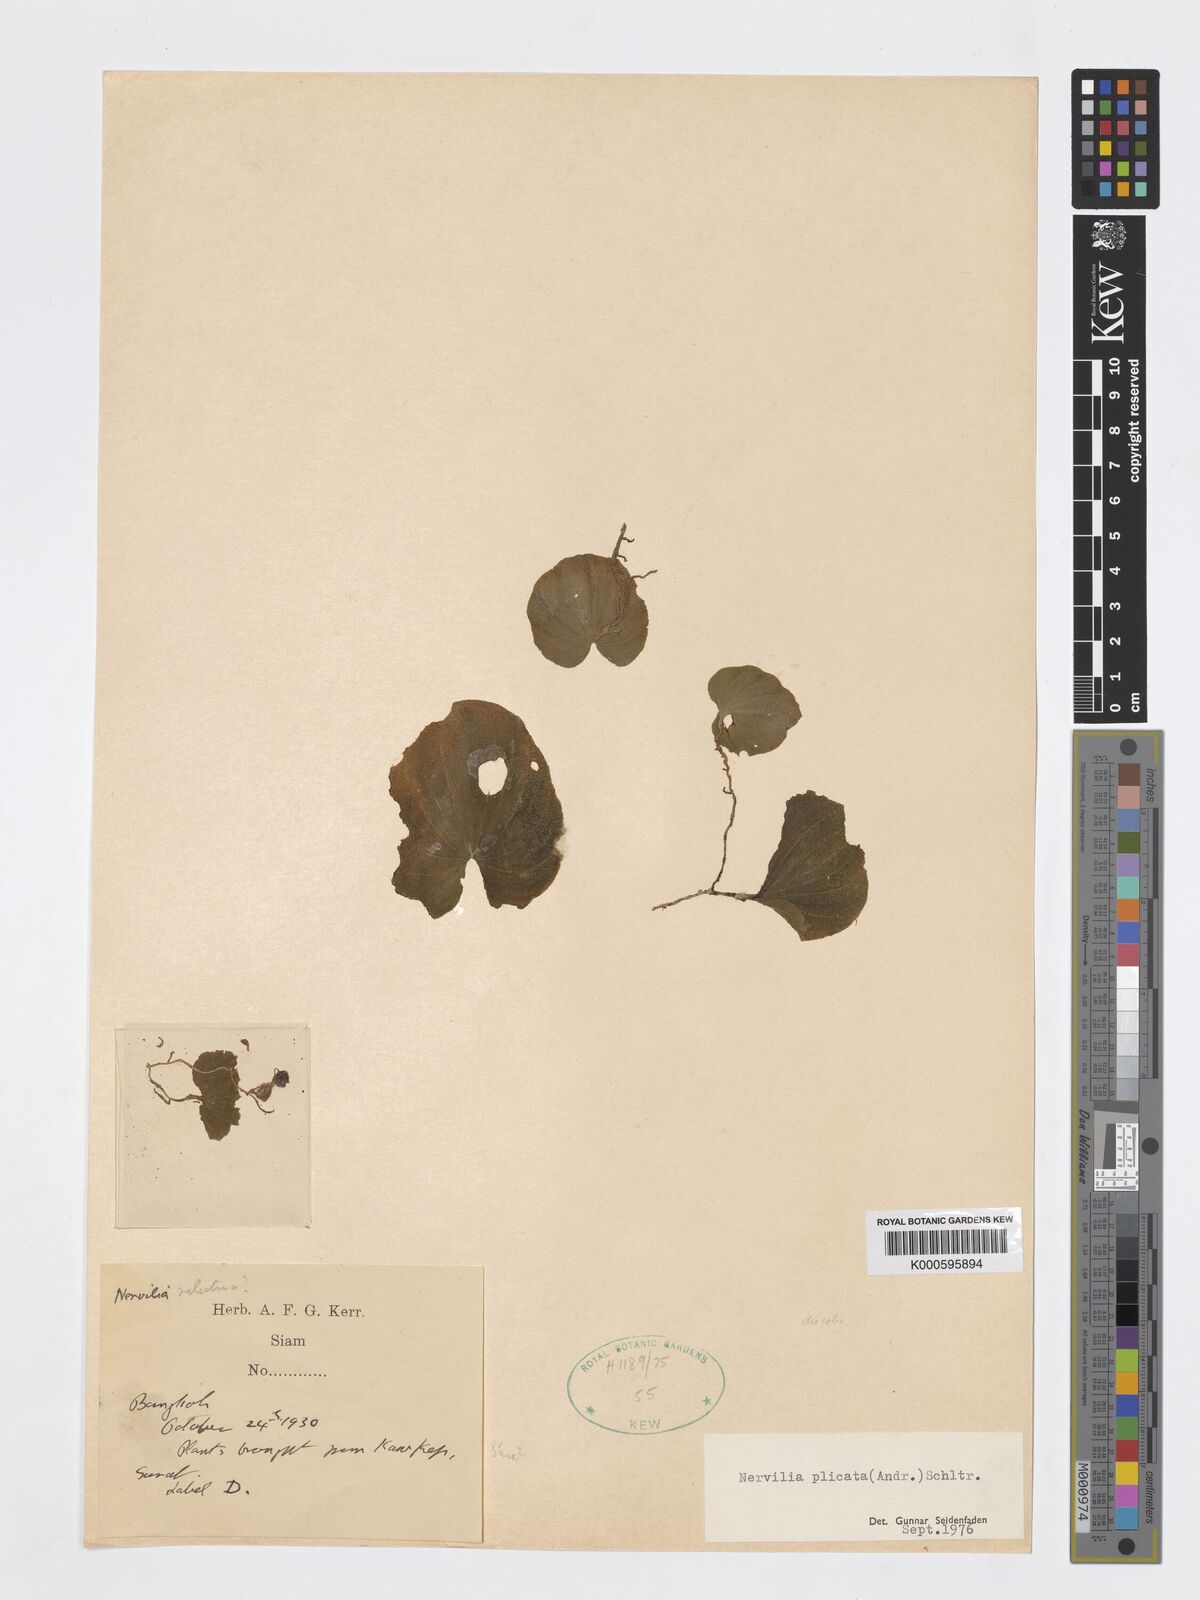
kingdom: Plantae
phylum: Tracheophyta
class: Liliopsida
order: Asparagales
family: Orchidaceae
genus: Nervilia
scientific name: Nervilia plicata
